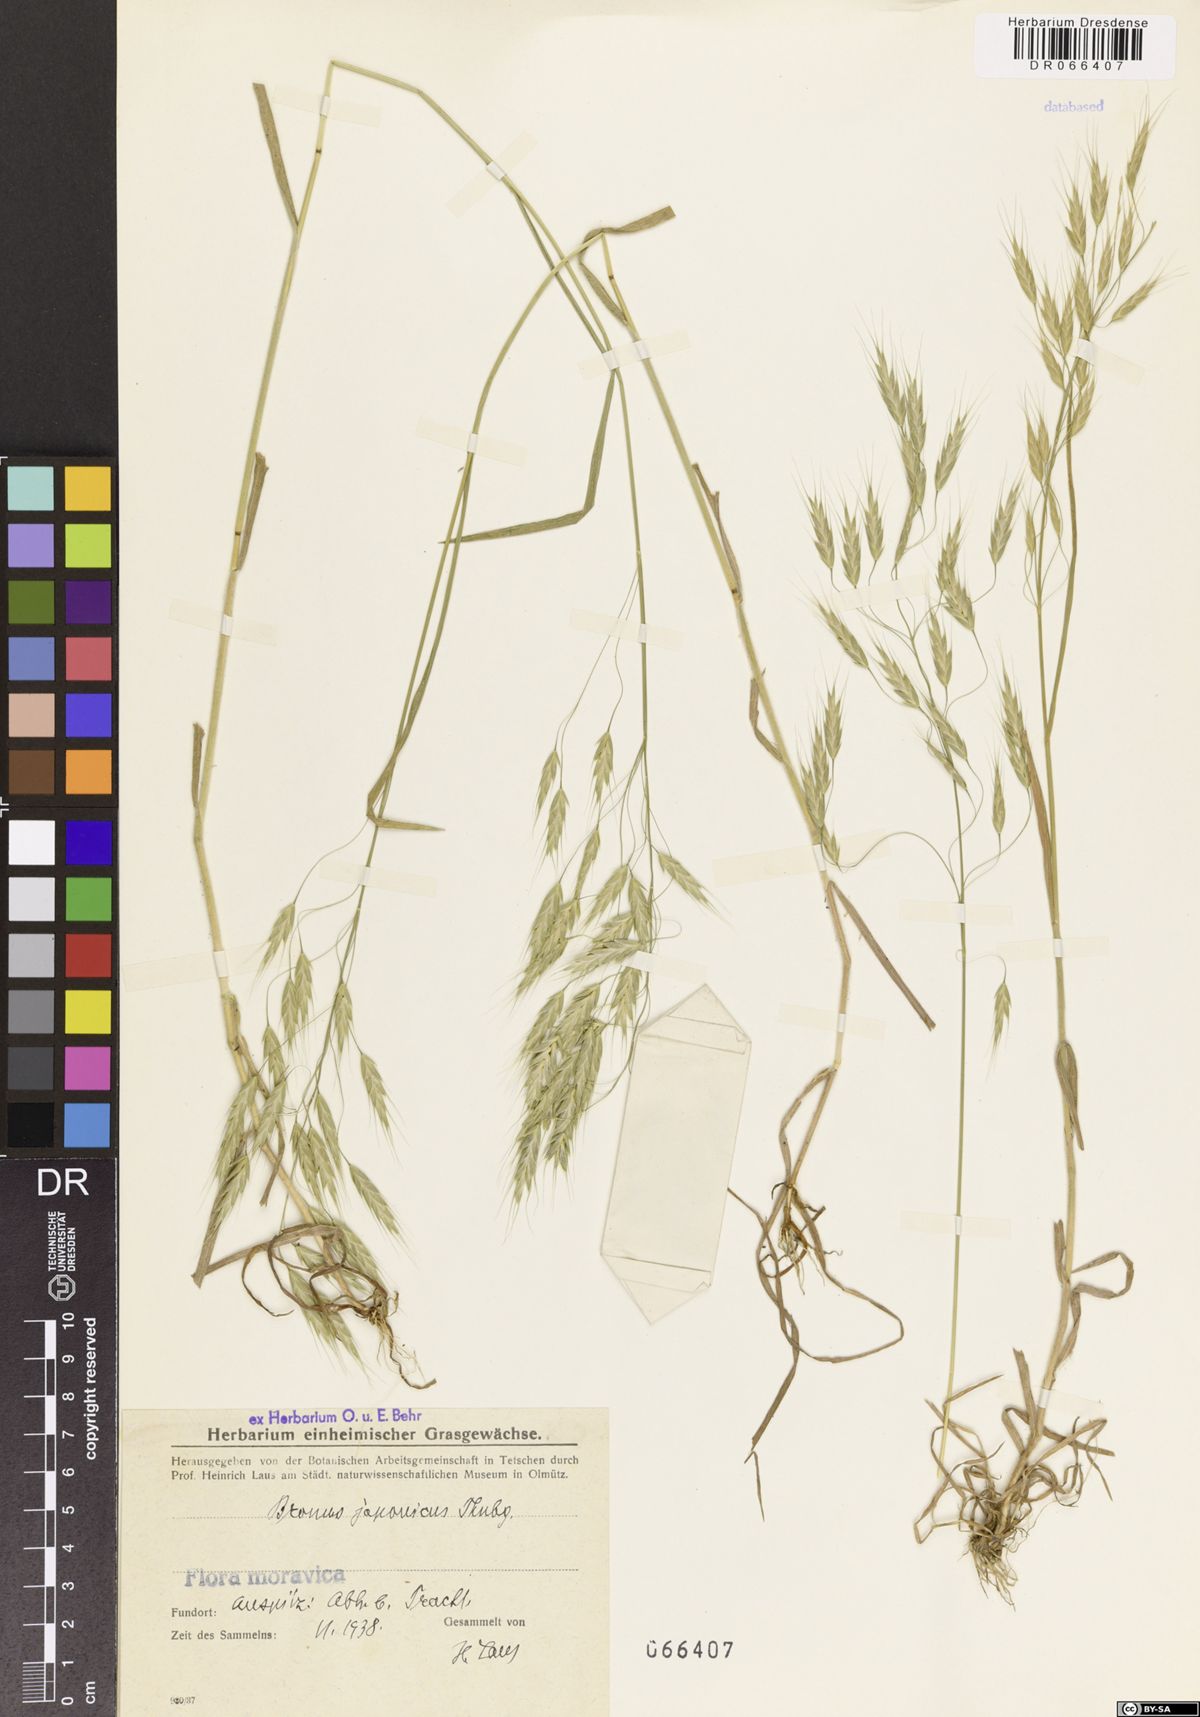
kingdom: Plantae
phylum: Tracheophyta
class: Liliopsida
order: Poales
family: Poaceae
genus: Bromus
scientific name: Bromus japonicus
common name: Japanese brome
